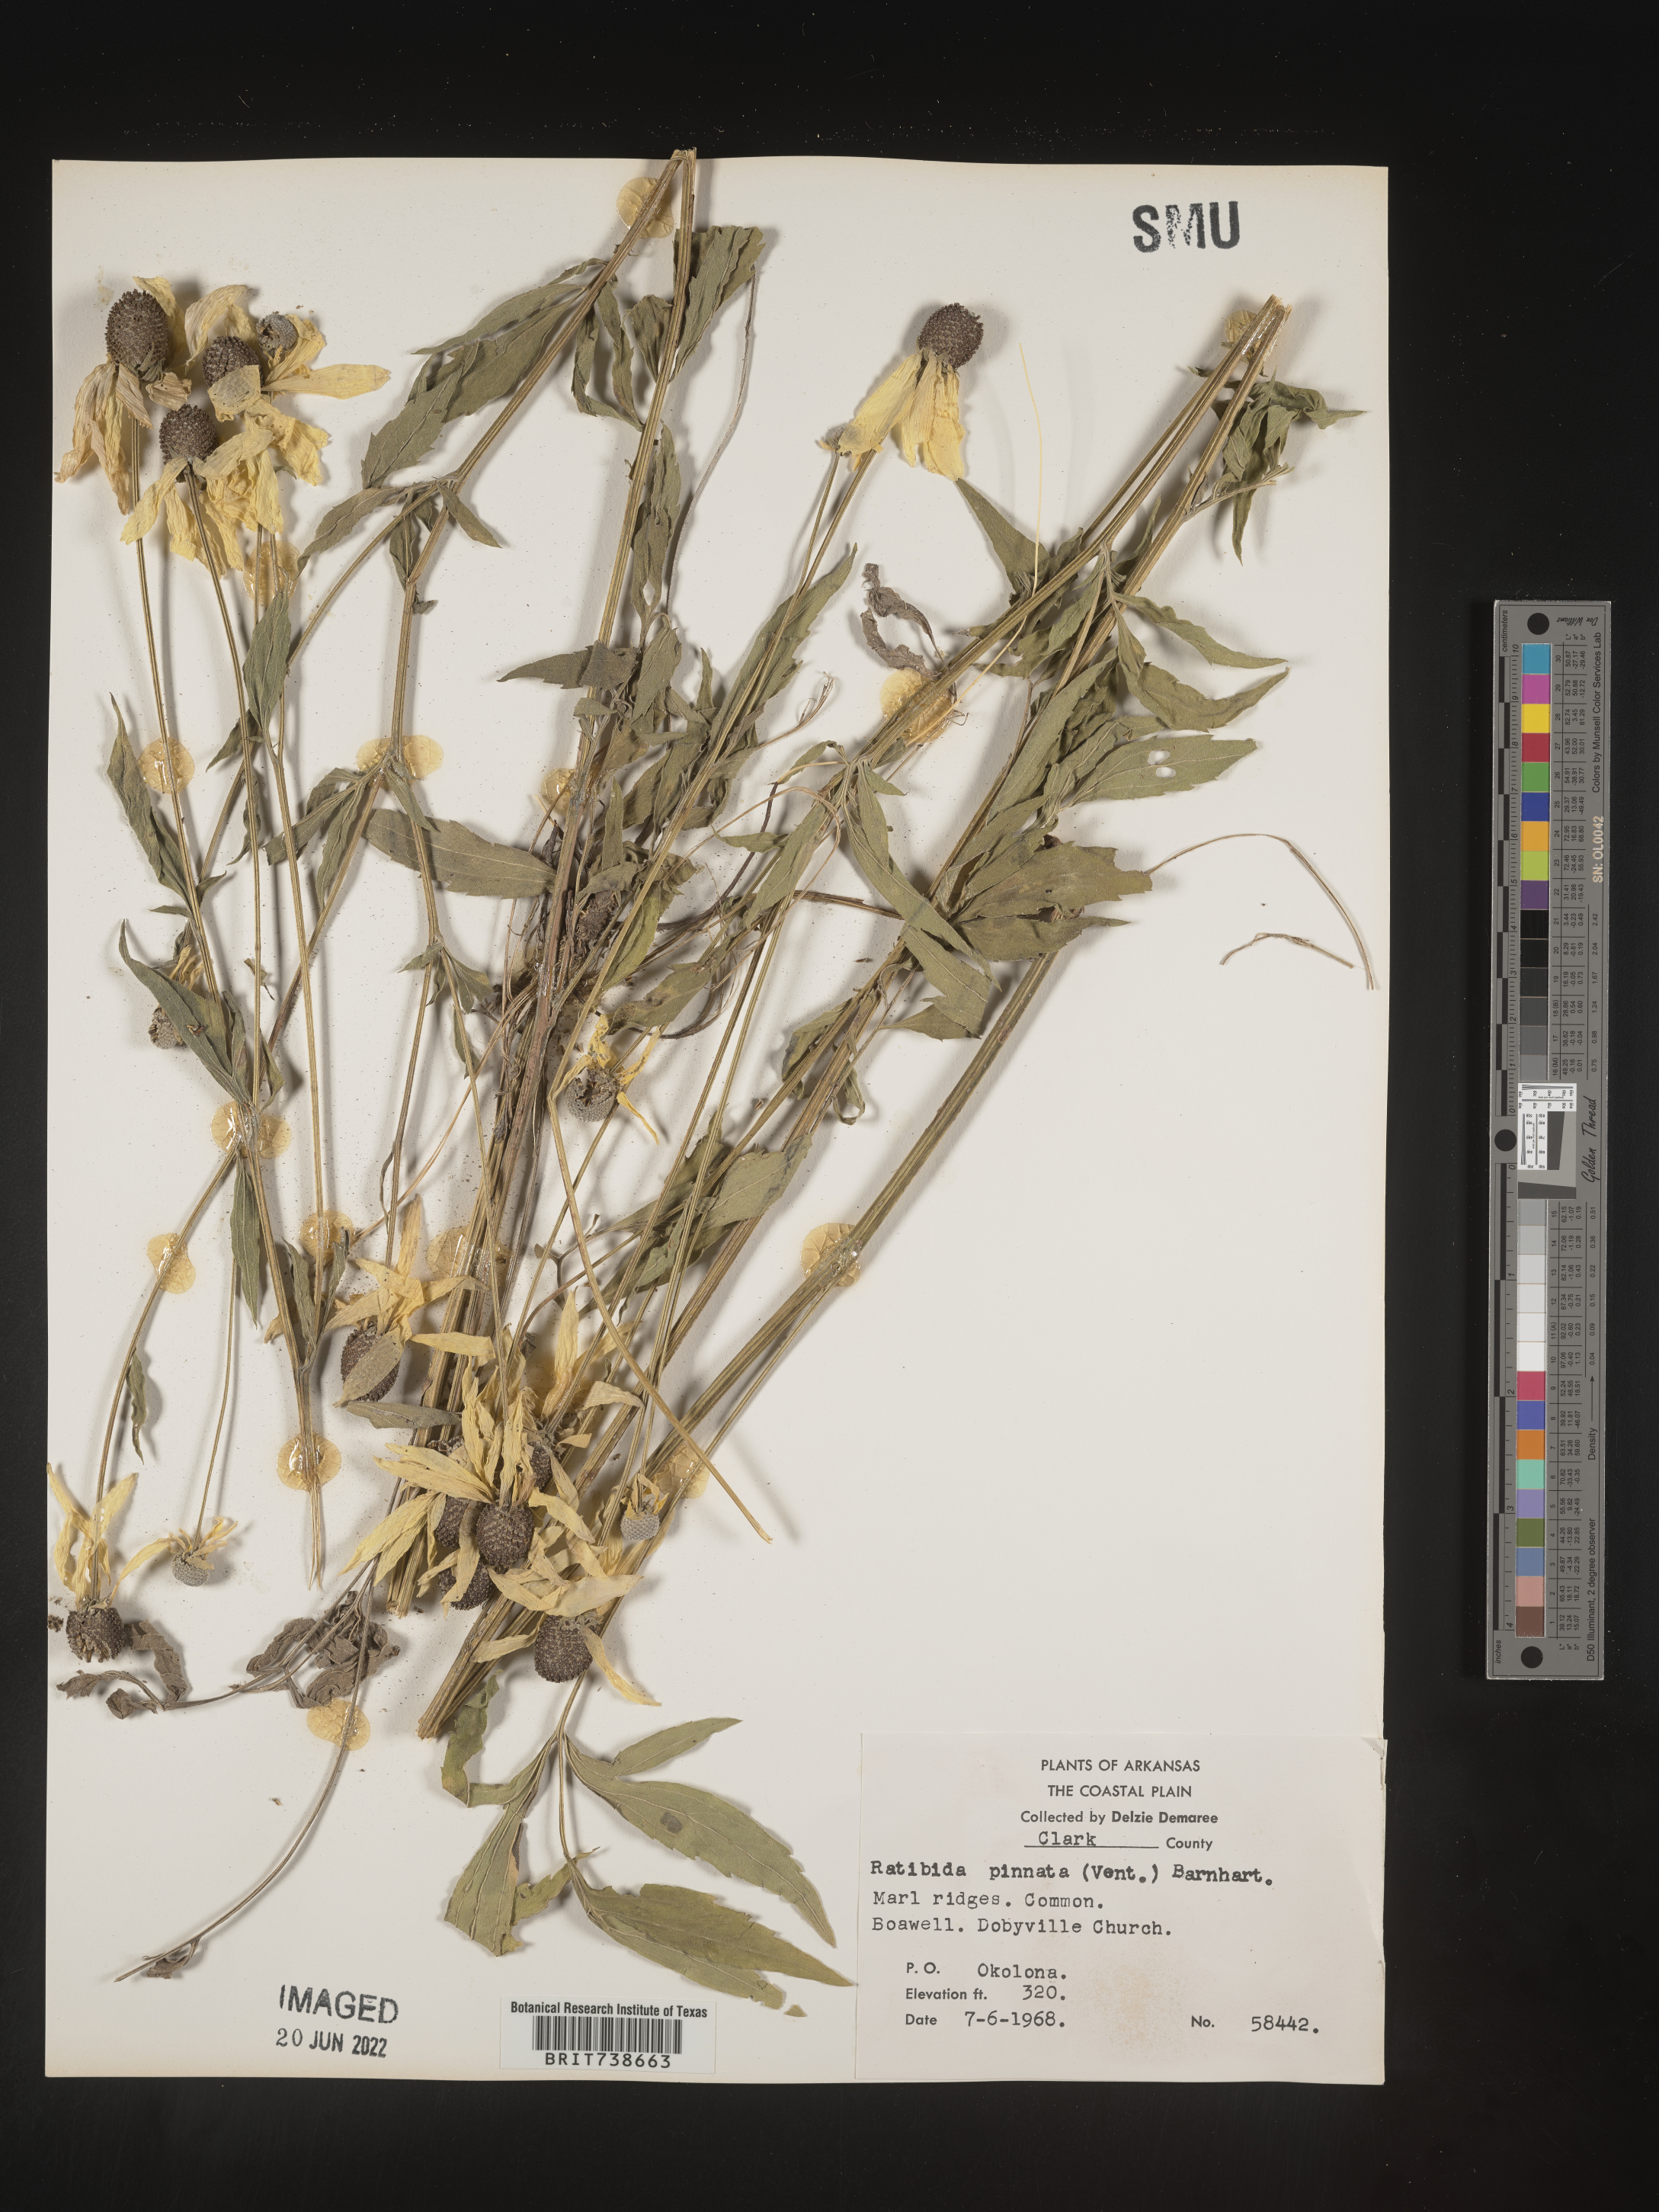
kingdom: Plantae
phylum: Tracheophyta
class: Magnoliopsida
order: Asterales
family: Asteraceae
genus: Ratibida
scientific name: Ratibida pinnata
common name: Drooping prairie-coneflower
